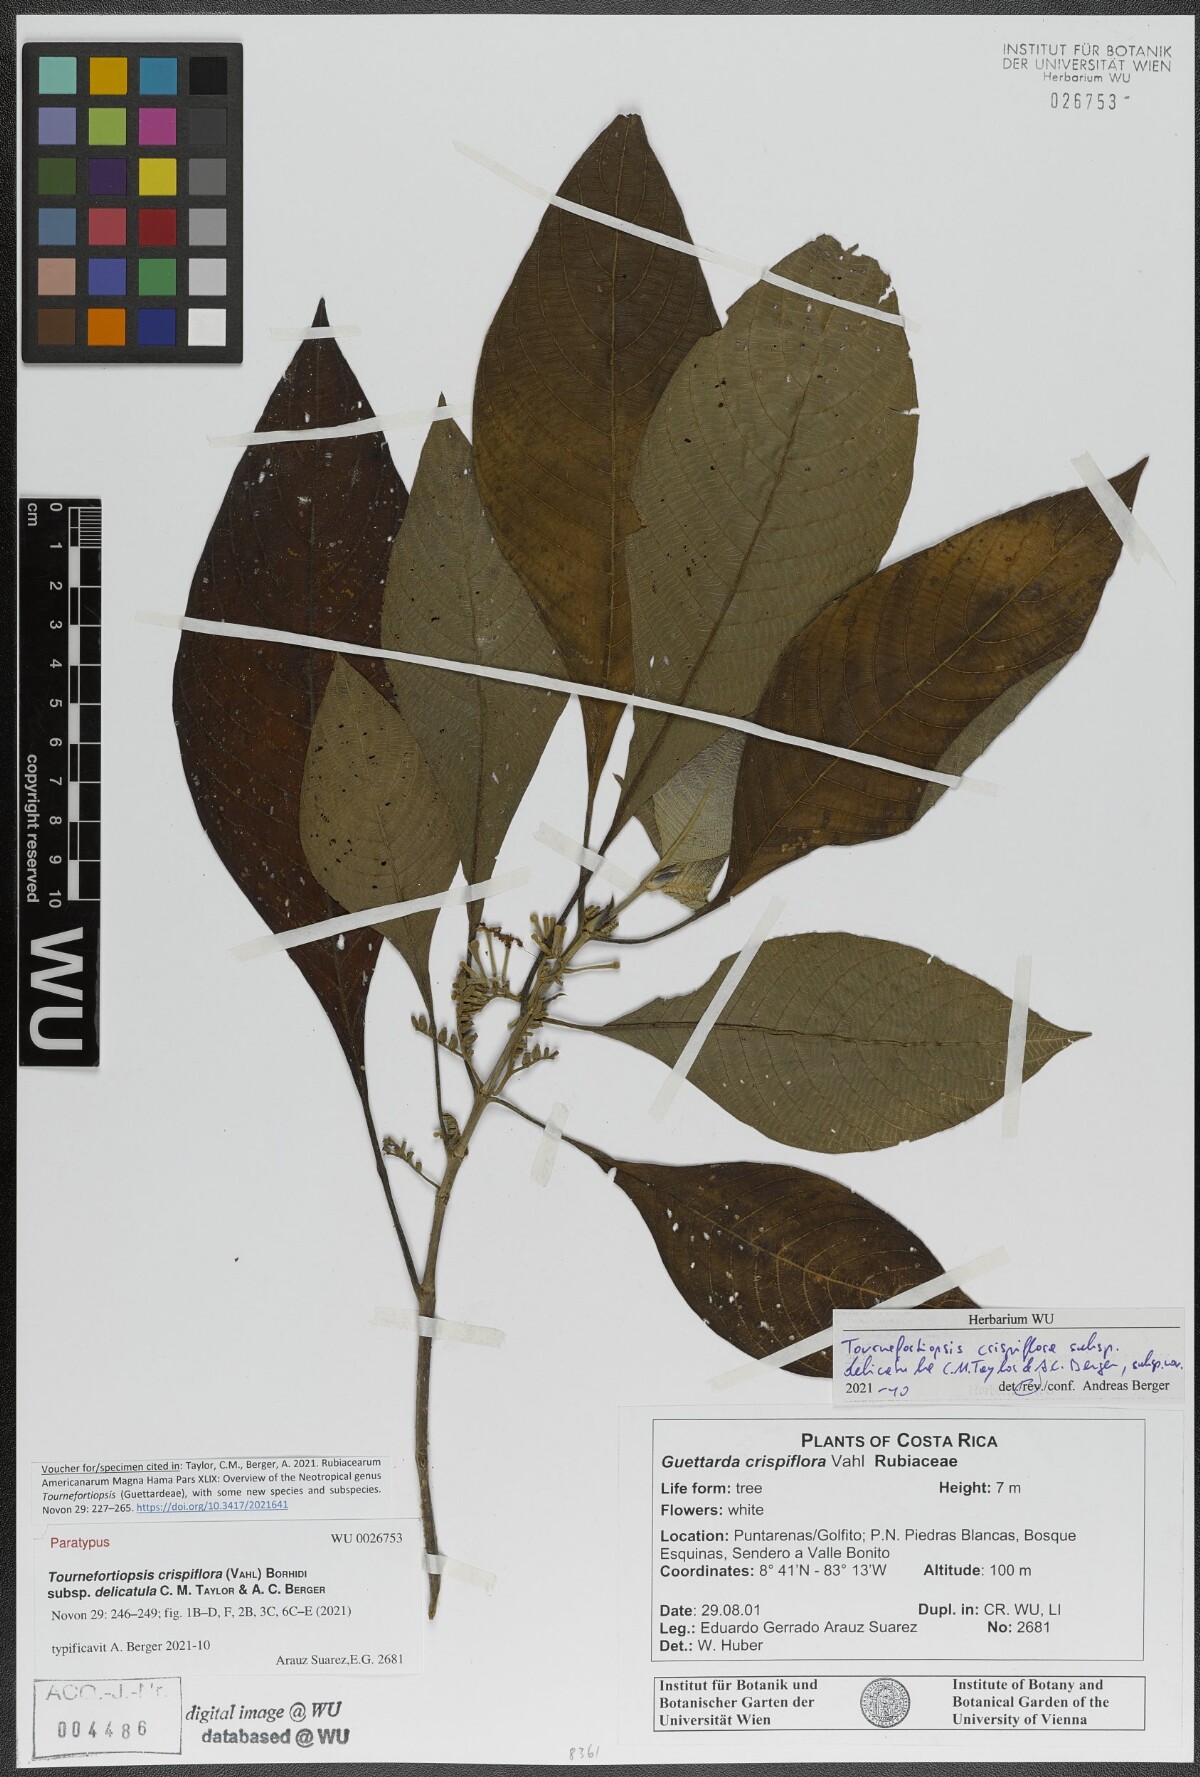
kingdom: Plantae
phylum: Tracheophyta
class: Magnoliopsida
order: Gentianales
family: Rubiaceae
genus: Tournefortiopsis
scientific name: Tournefortiopsis crispiflora
